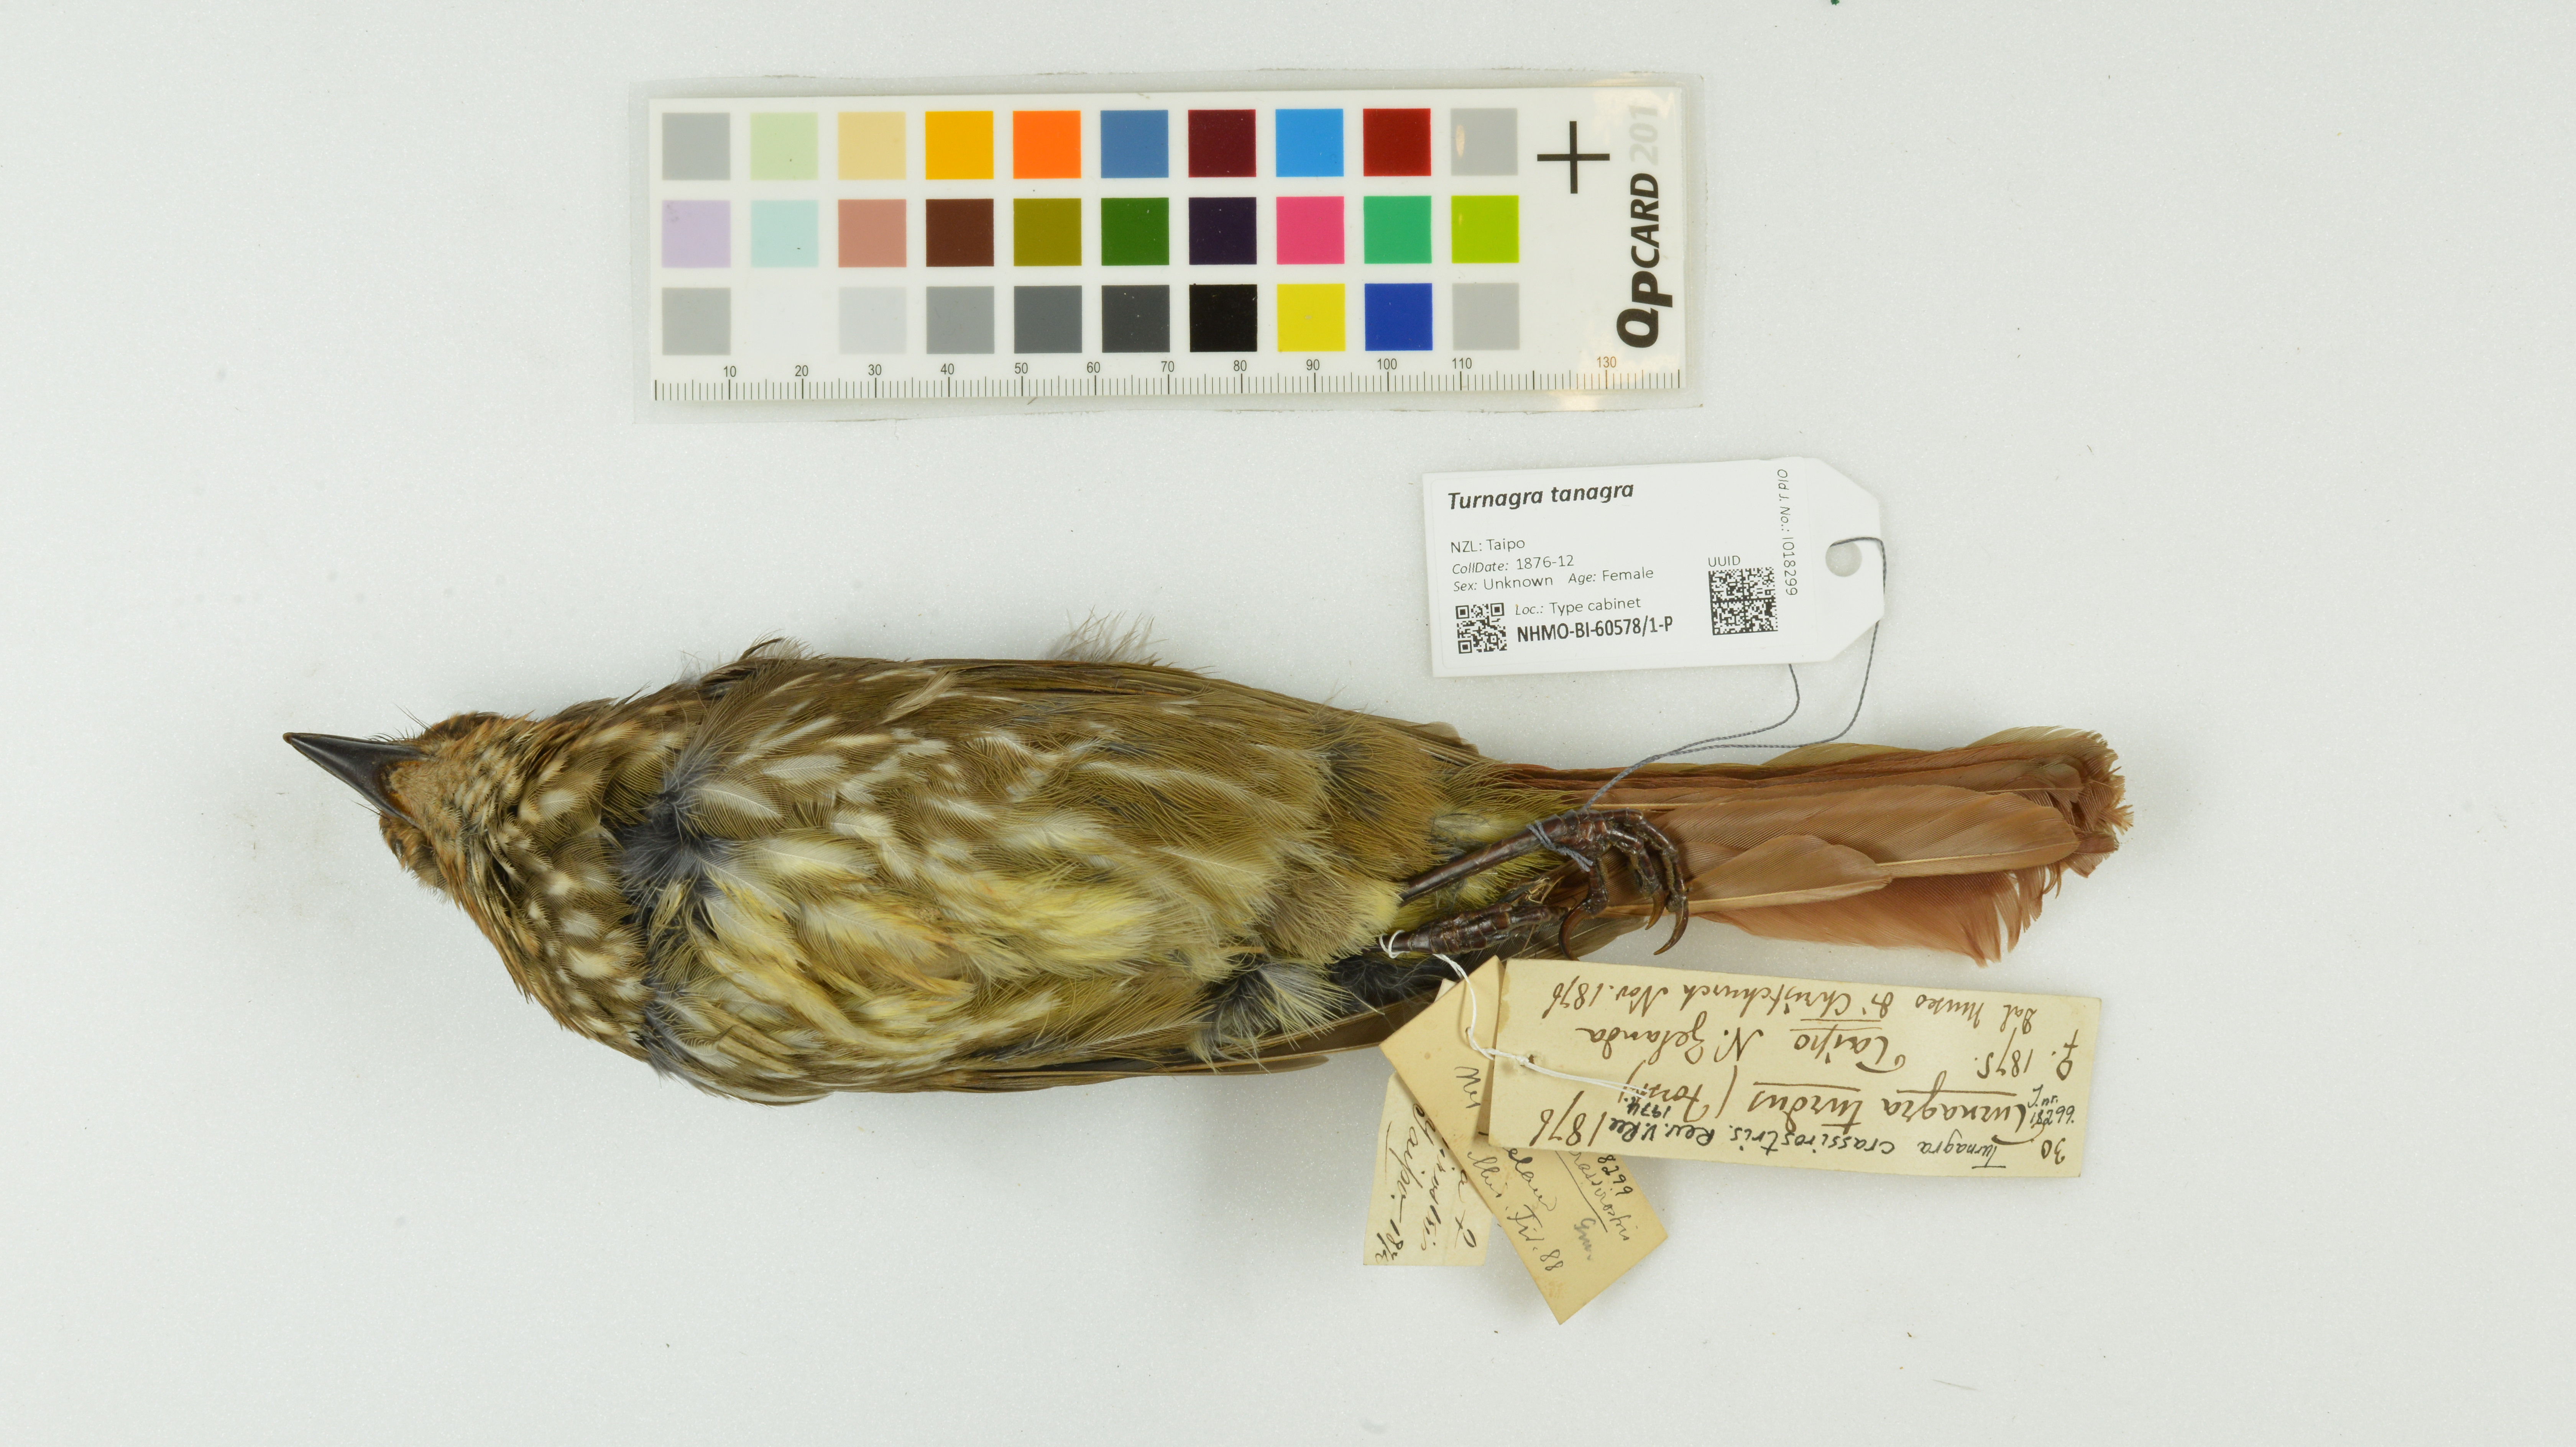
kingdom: Animalia
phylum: Chordata
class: Aves
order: Passeriformes
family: Ptilonorhynchidae
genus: Turnagra
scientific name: Turnagra capensis
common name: South island piopio
